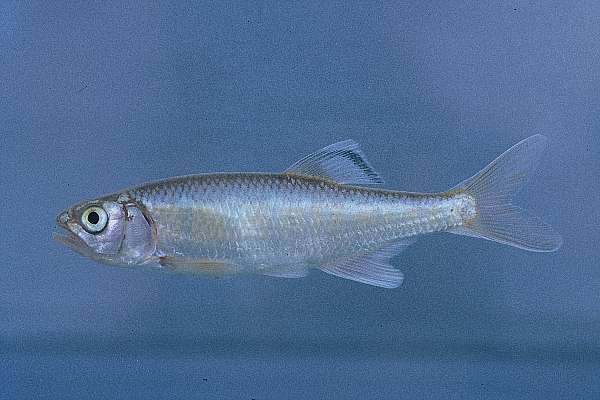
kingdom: Animalia
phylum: Chordata
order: Cypriniformes
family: Cyprinidae
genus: Opsaridium
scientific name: Opsaridium tweddleorum
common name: Dwarf sanjika
